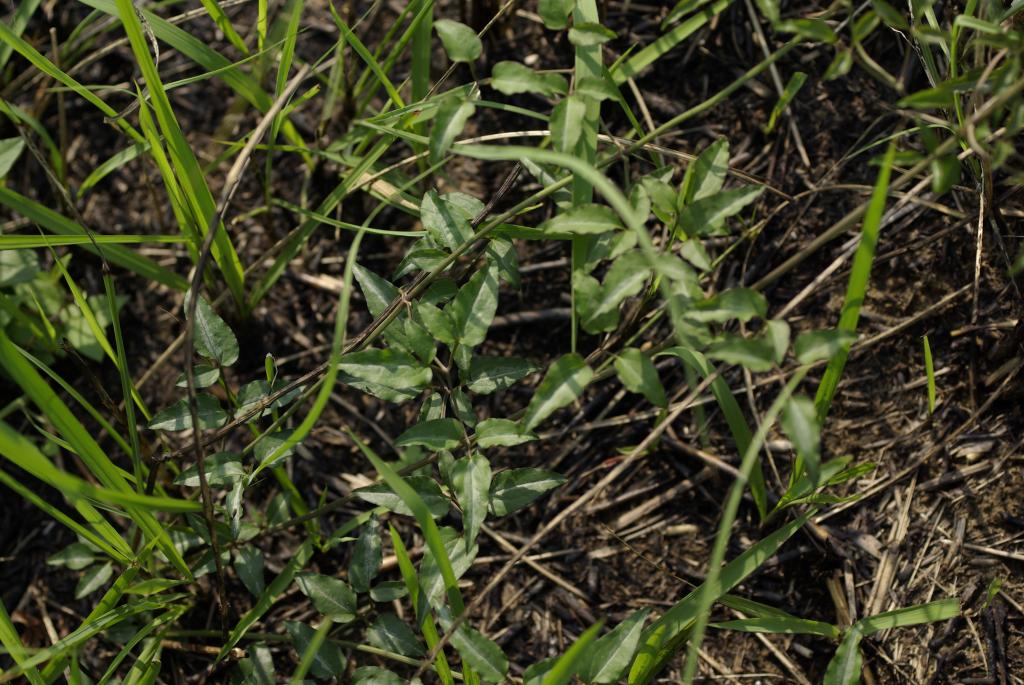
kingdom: Plantae
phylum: Tracheophyta
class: Magnoliopsida
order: Ranunculales
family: Ranunculaceae
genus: Clematis
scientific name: Clematis chinensis
